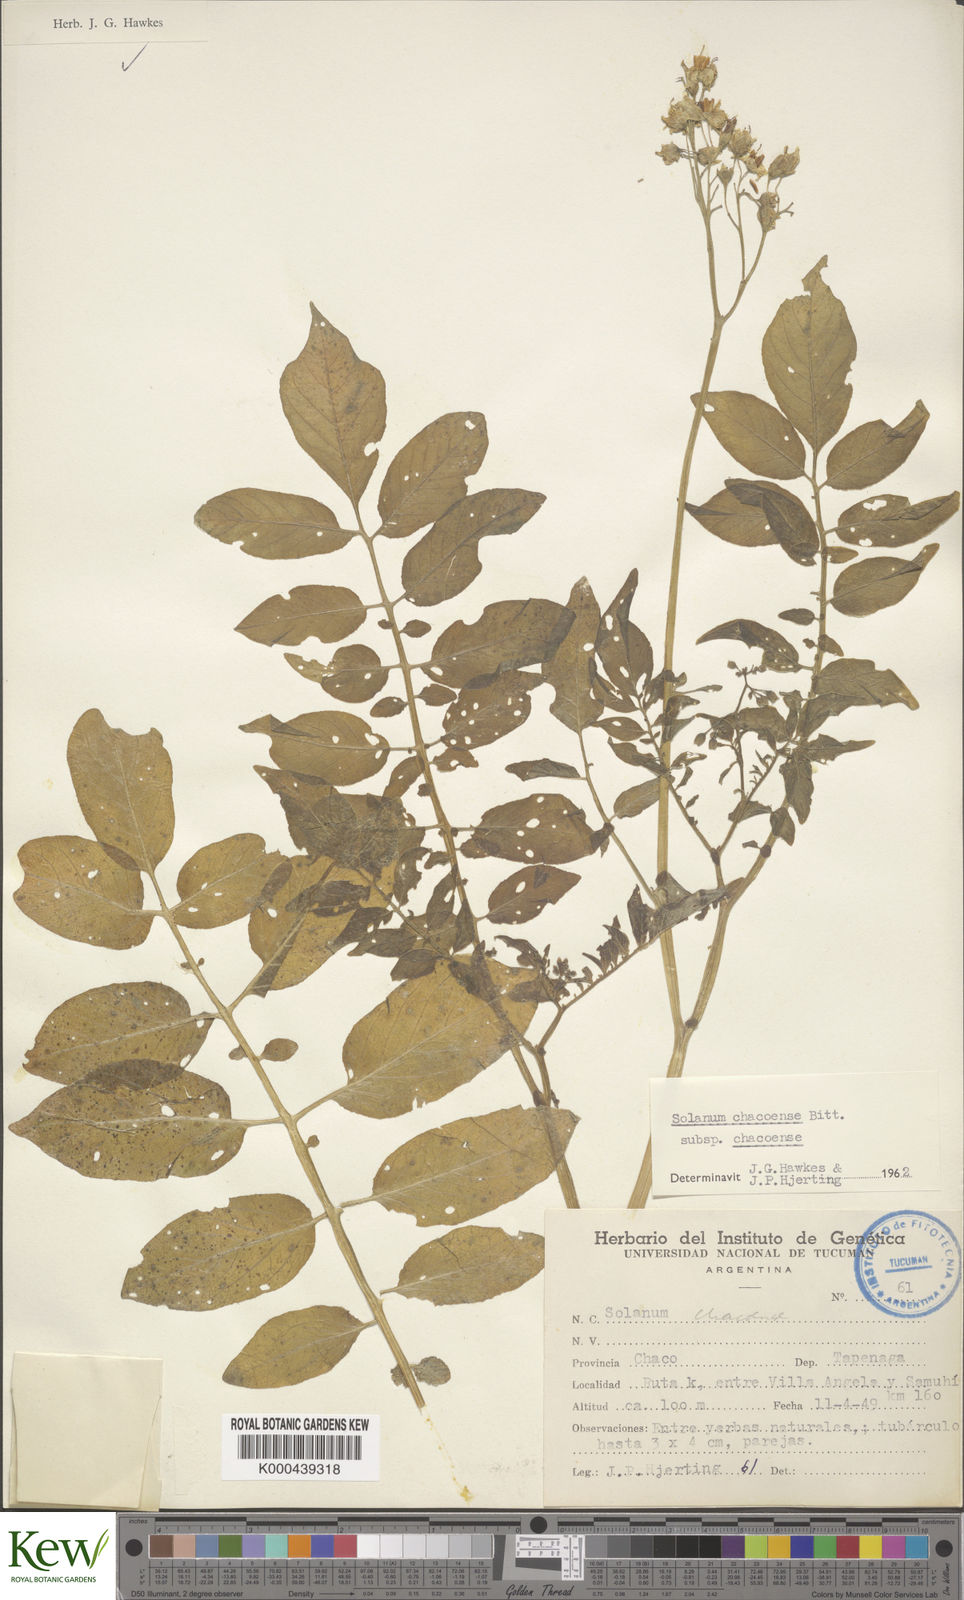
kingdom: Plantae
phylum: Tracheophyta
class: Magnoliopsida
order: Solanales
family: Solanaceae
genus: Solanum
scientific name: Solanum chacoense
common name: Chaco potato
